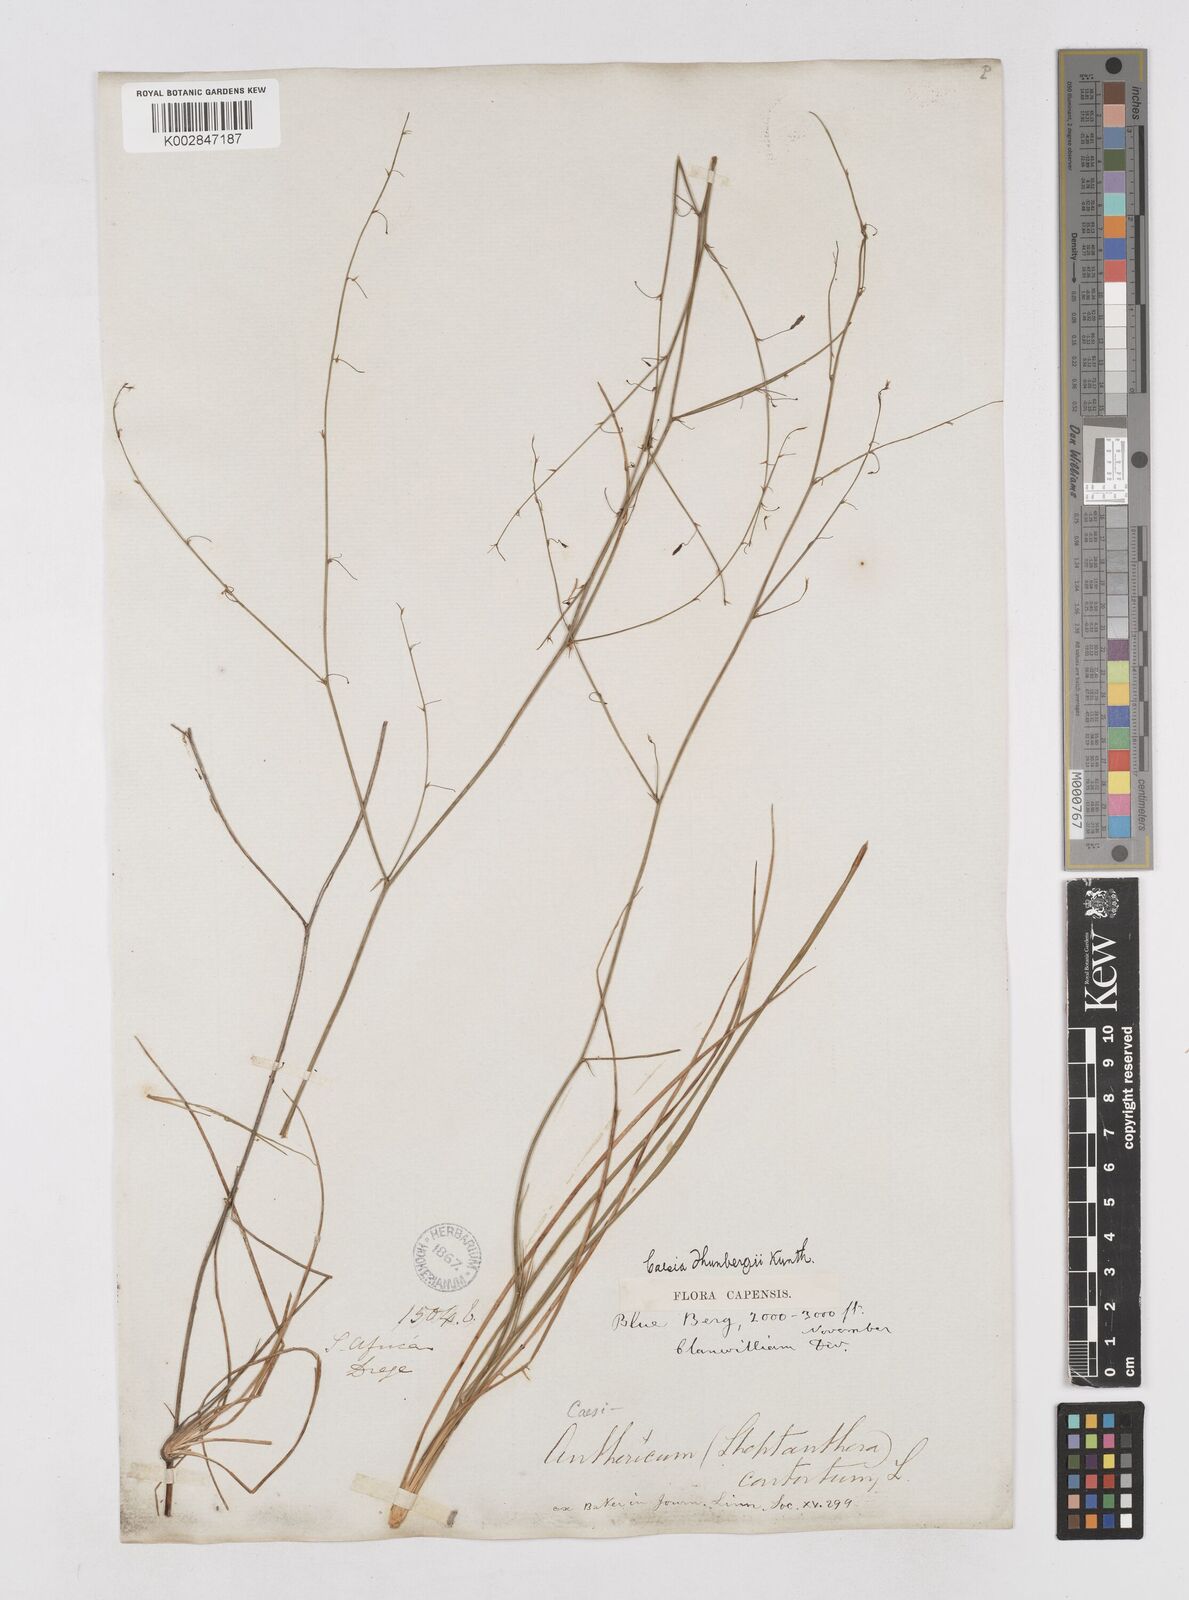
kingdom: Plantae
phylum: Tracheophyta
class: Liliopsida
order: Asparagales
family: Asphodelaceae
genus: Caesia
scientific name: Caesia contorta
